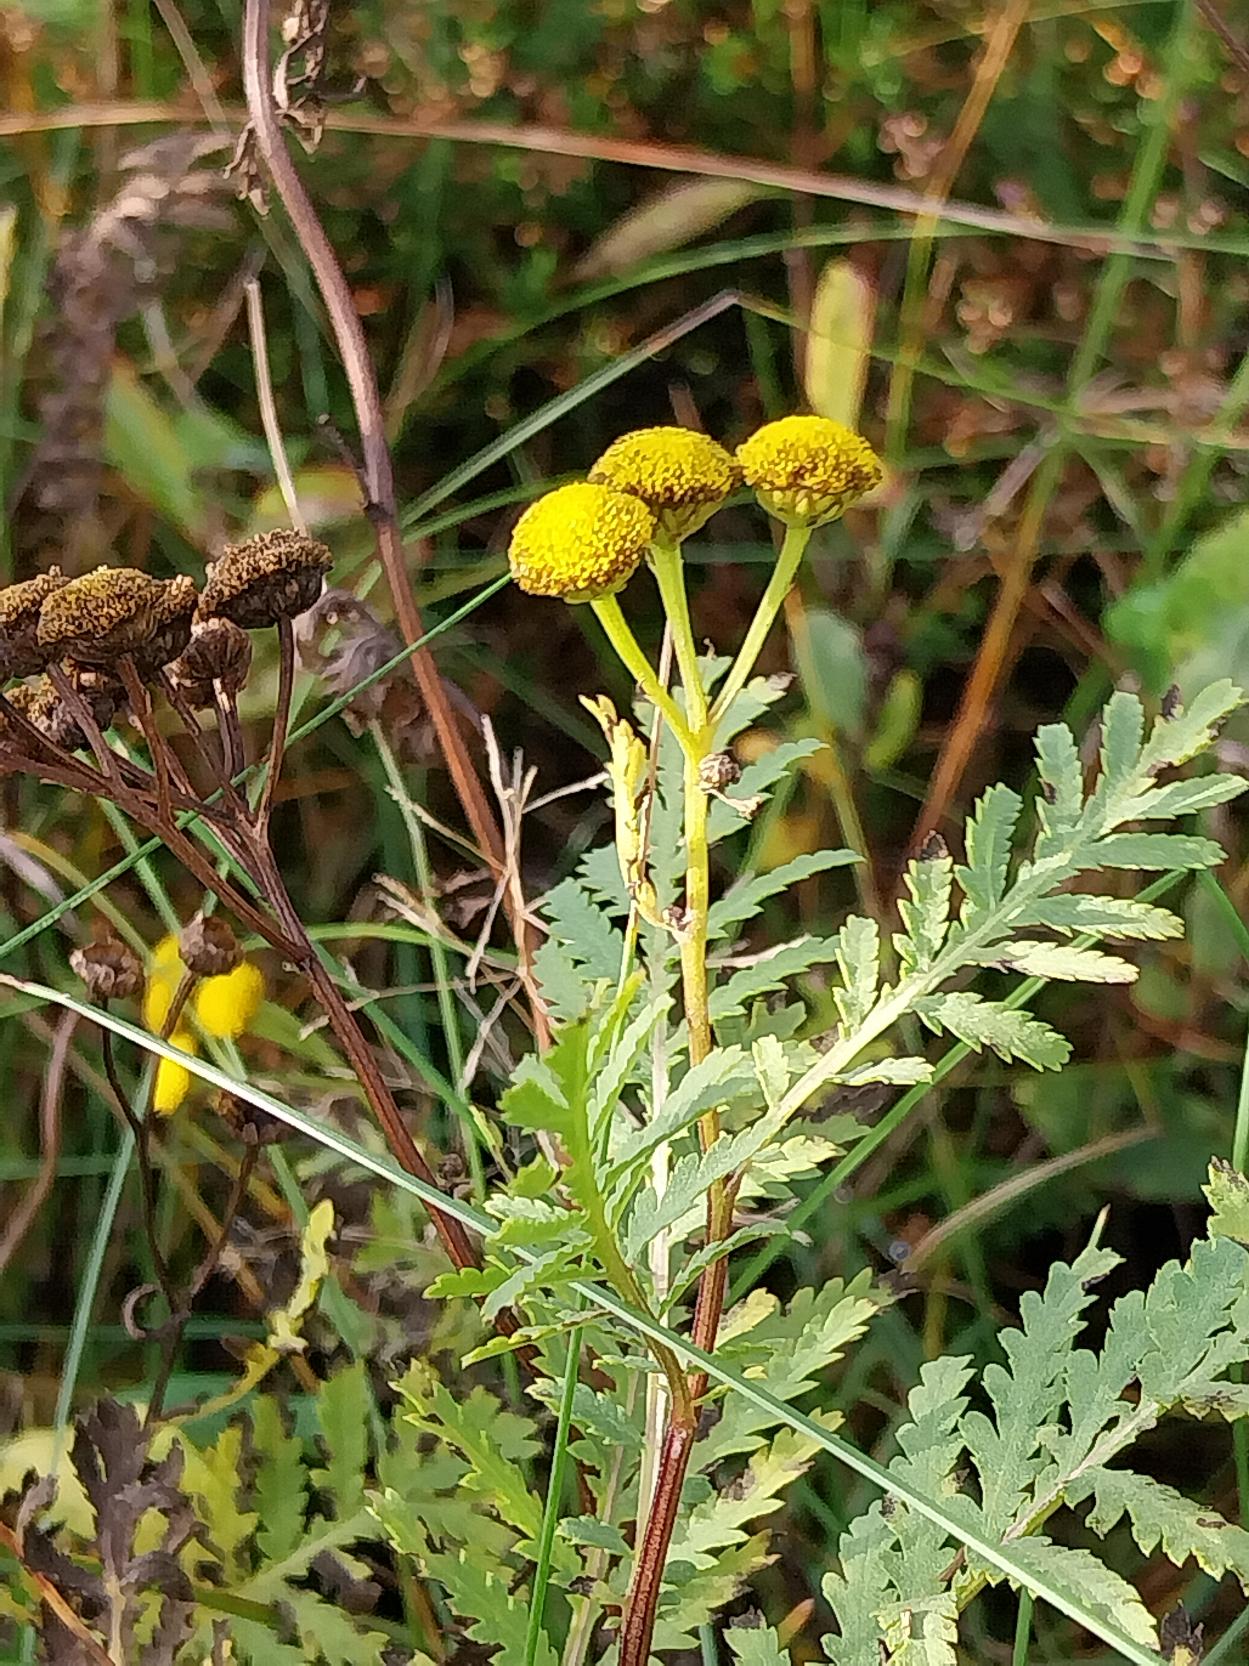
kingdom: Plantae
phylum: Tracheophyta
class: Magnoliopsida
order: Asterales
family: Asteraceae
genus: Tanacetum
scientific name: Tanacetum vulgare
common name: Rejnfan
